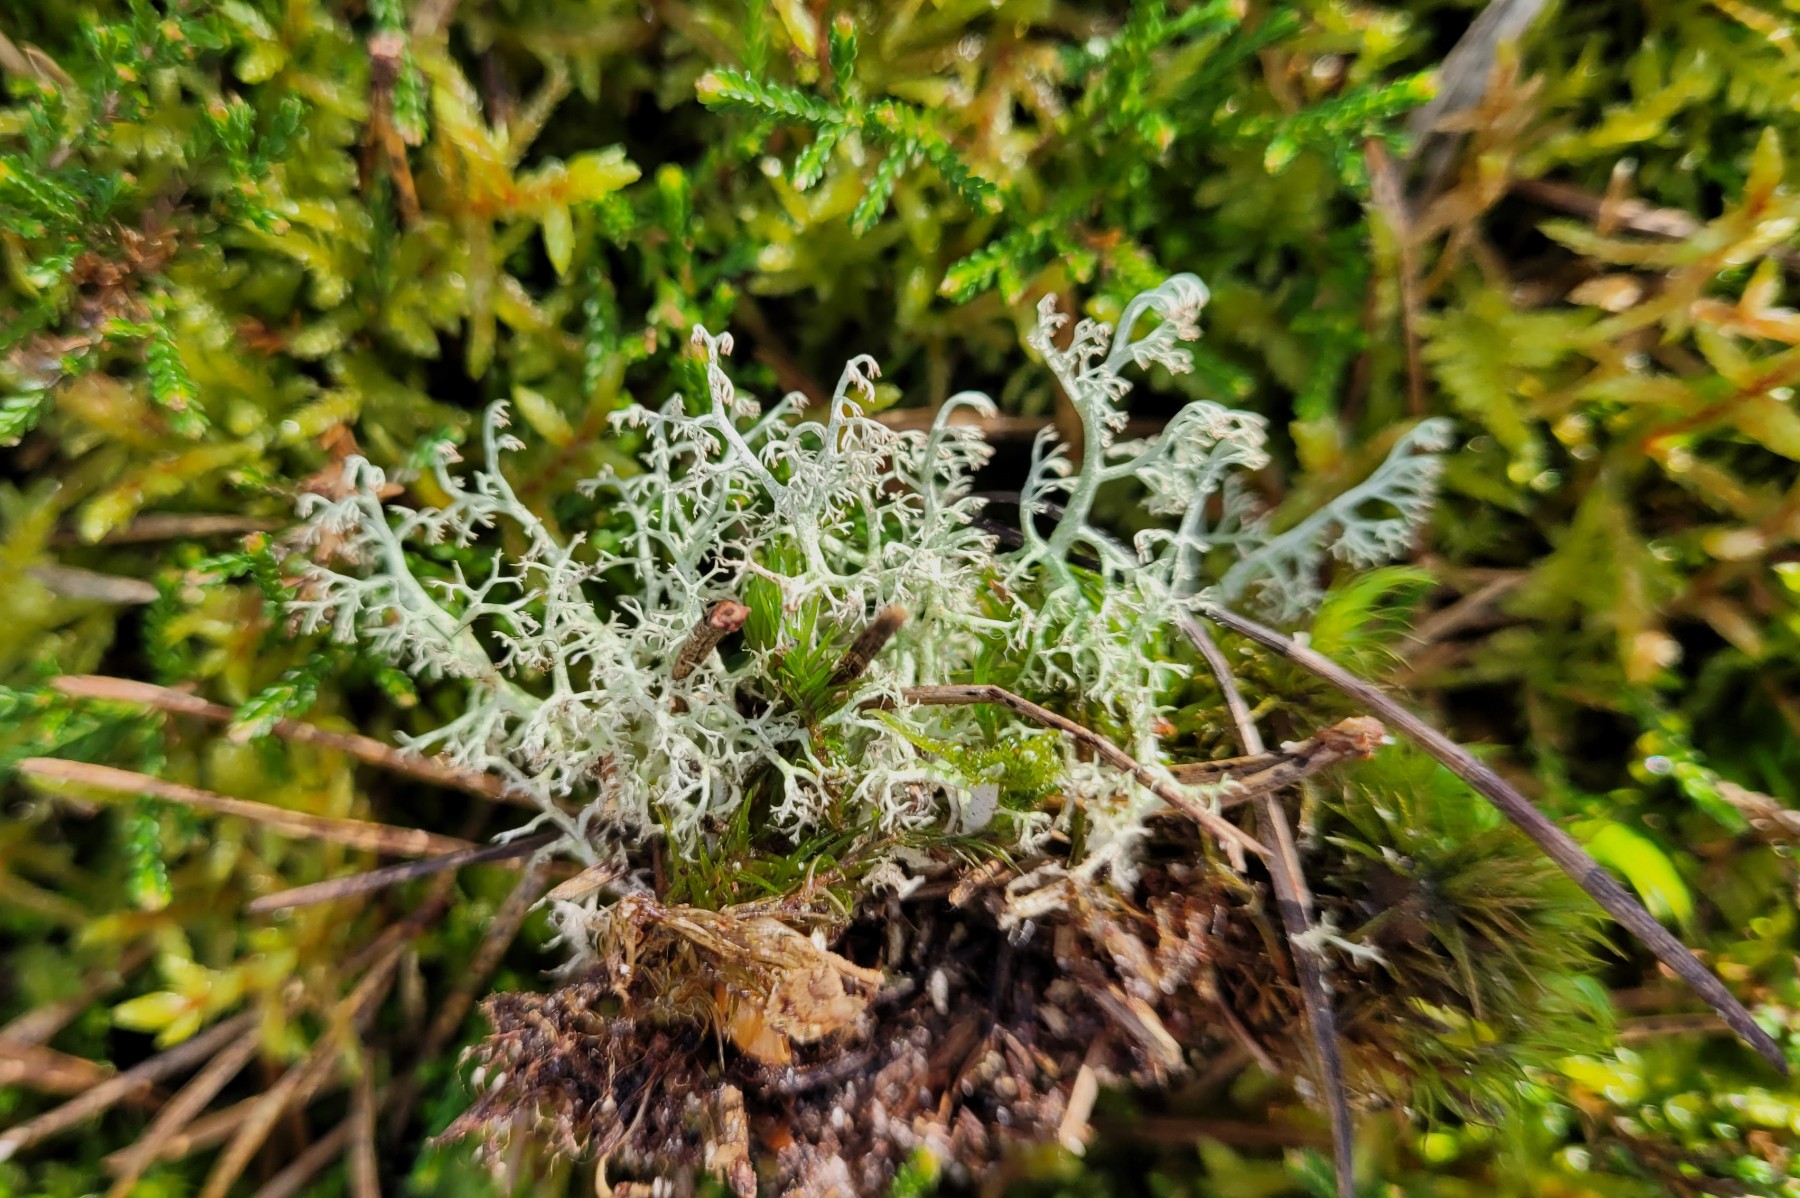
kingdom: Fungi
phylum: Ascomycota
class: Lecanoromycetes
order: Lecanorales
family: Cladoniaceae
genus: Cladonia
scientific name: Cladonia ciliata
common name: spinkel rensdyrlav
